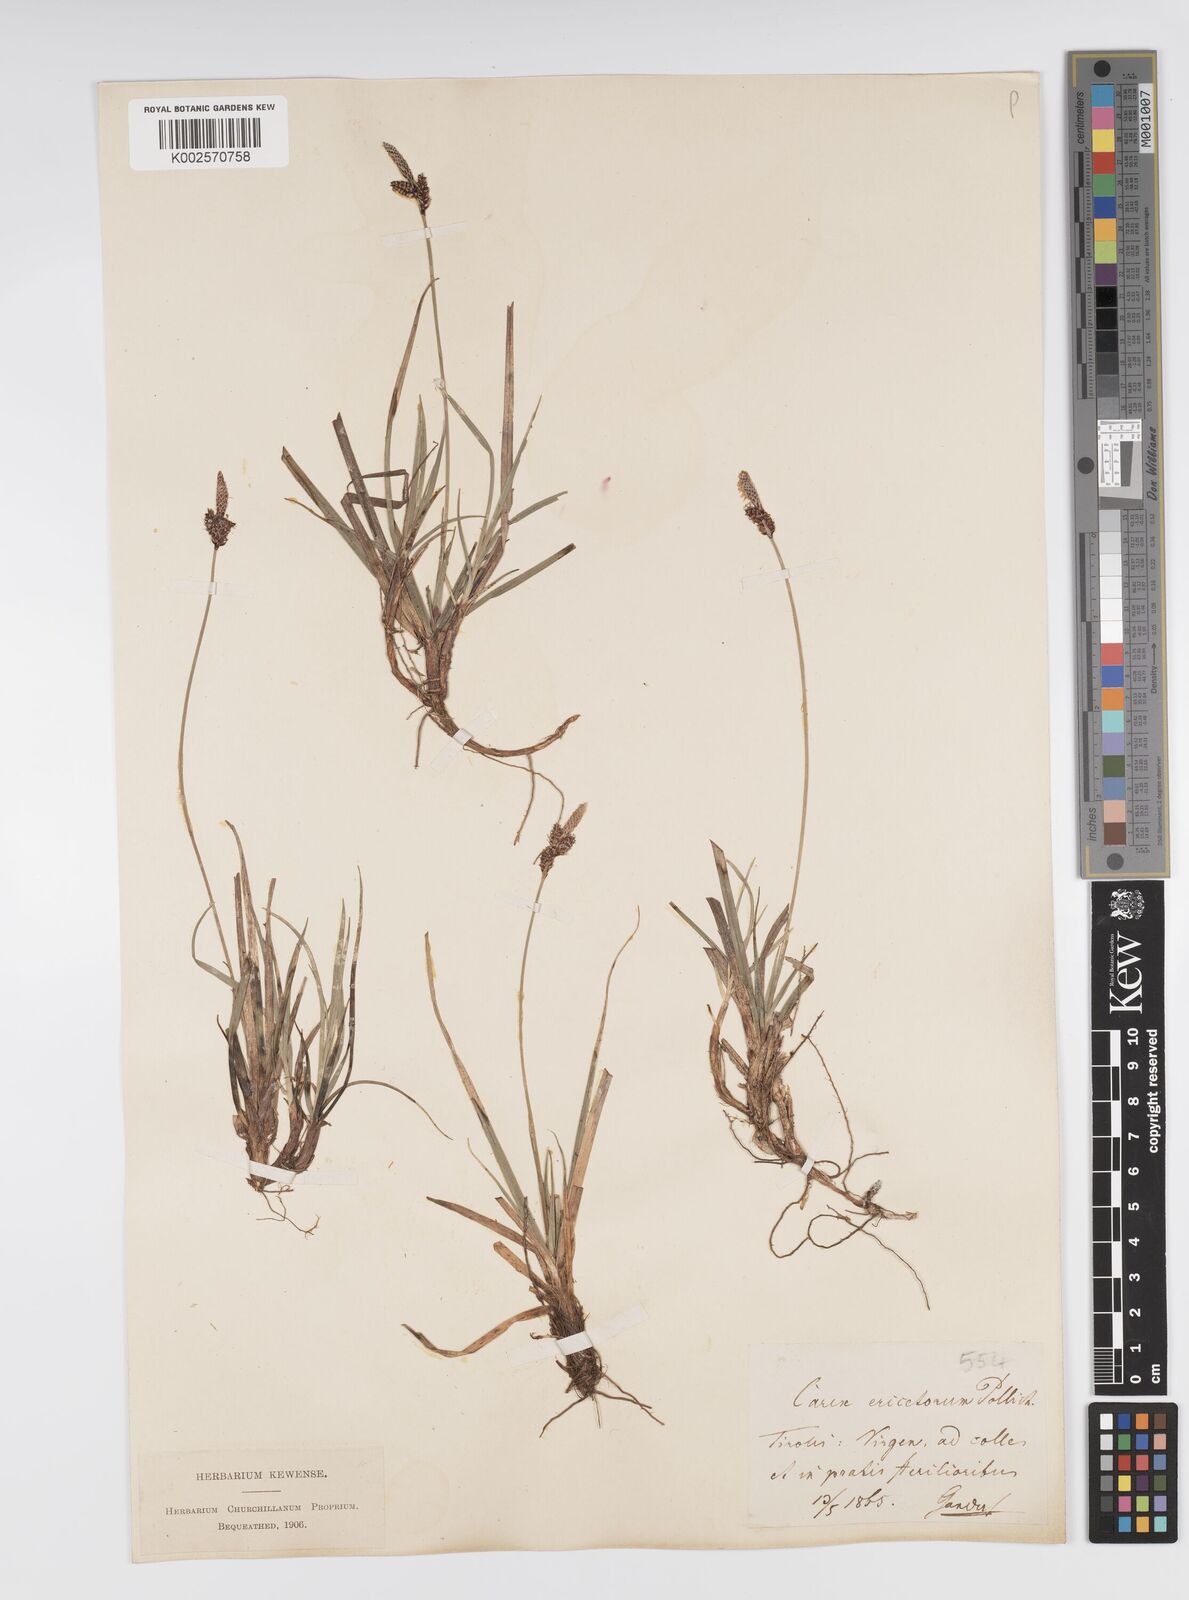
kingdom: Plantae
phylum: Tracheophyta
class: Liliopsida
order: Poales
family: Cyperaceae
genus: Carex
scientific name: Carex ericetorum
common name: Rare spring-sedge
